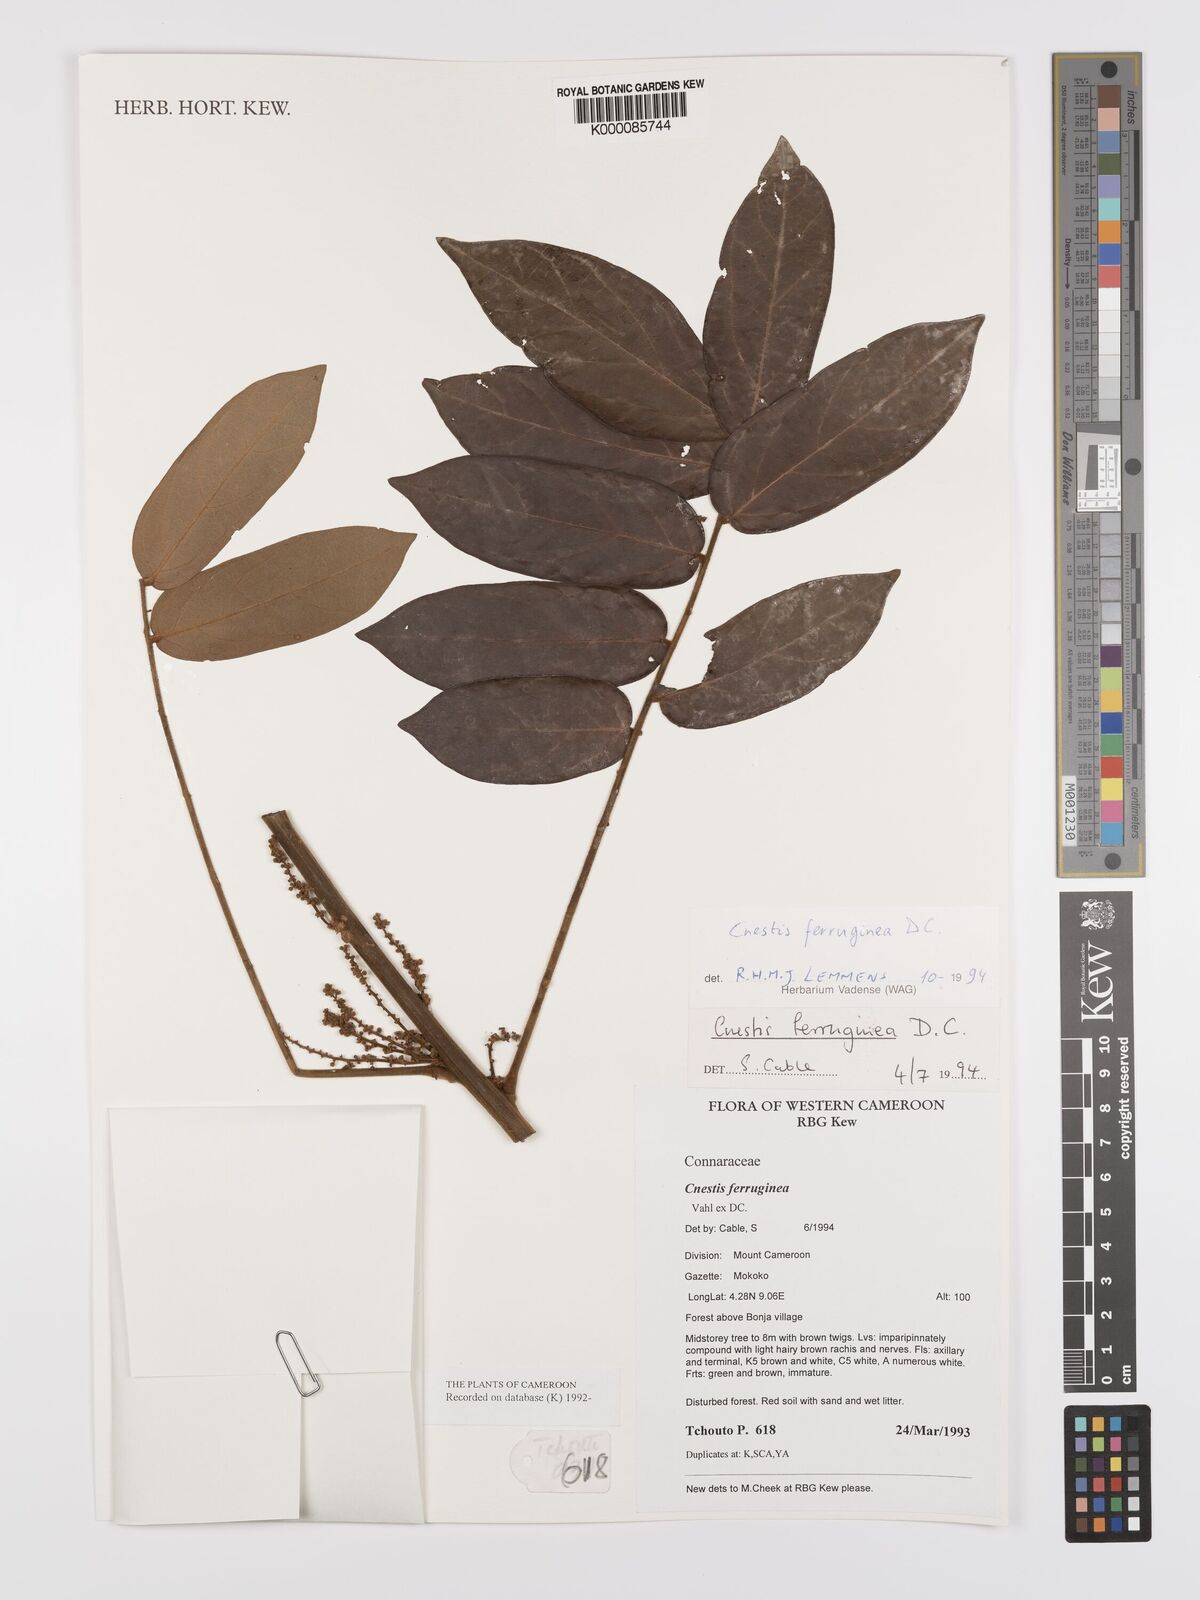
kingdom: Plantae
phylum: Tracheophyta
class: Magnoliopsida
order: Oxalidales
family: Connaraceae
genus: Cnestis
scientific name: Cnestis ferruginea
